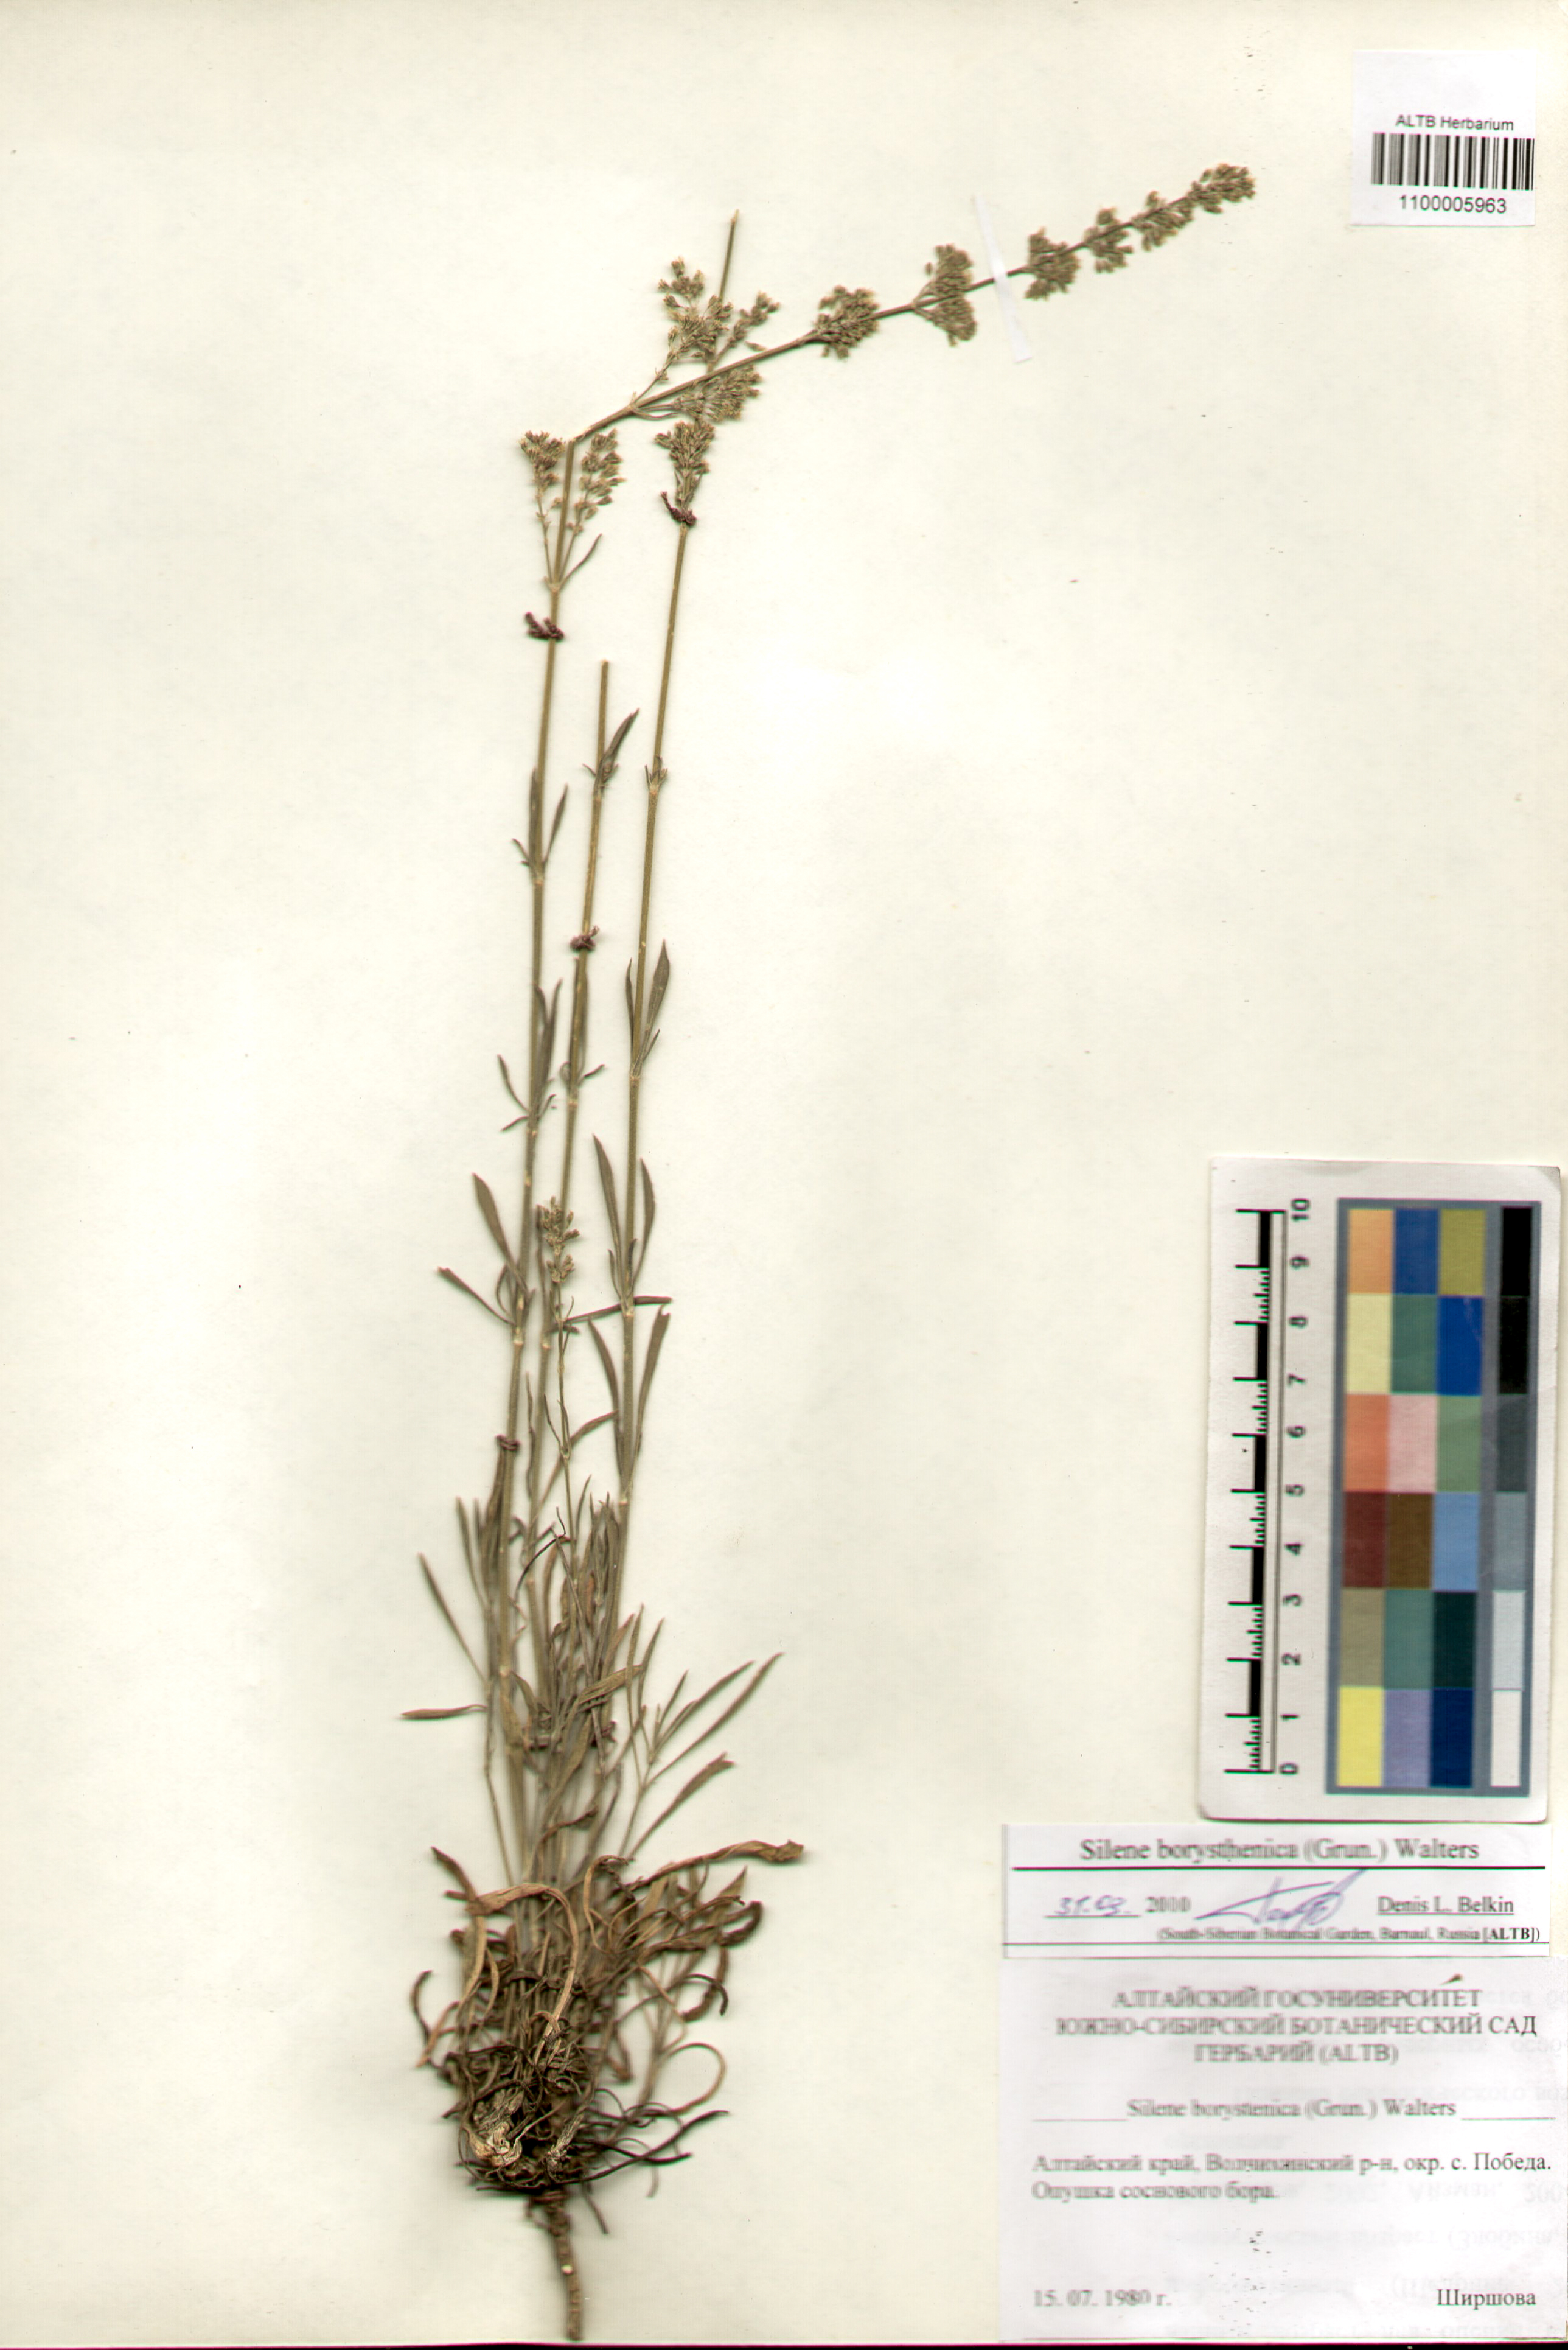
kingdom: Plantae
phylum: Tracheophyta
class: Magnoliopsida
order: Caryophyllales
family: Caryophyllaceae
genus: Silene
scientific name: Silene borysthenica
